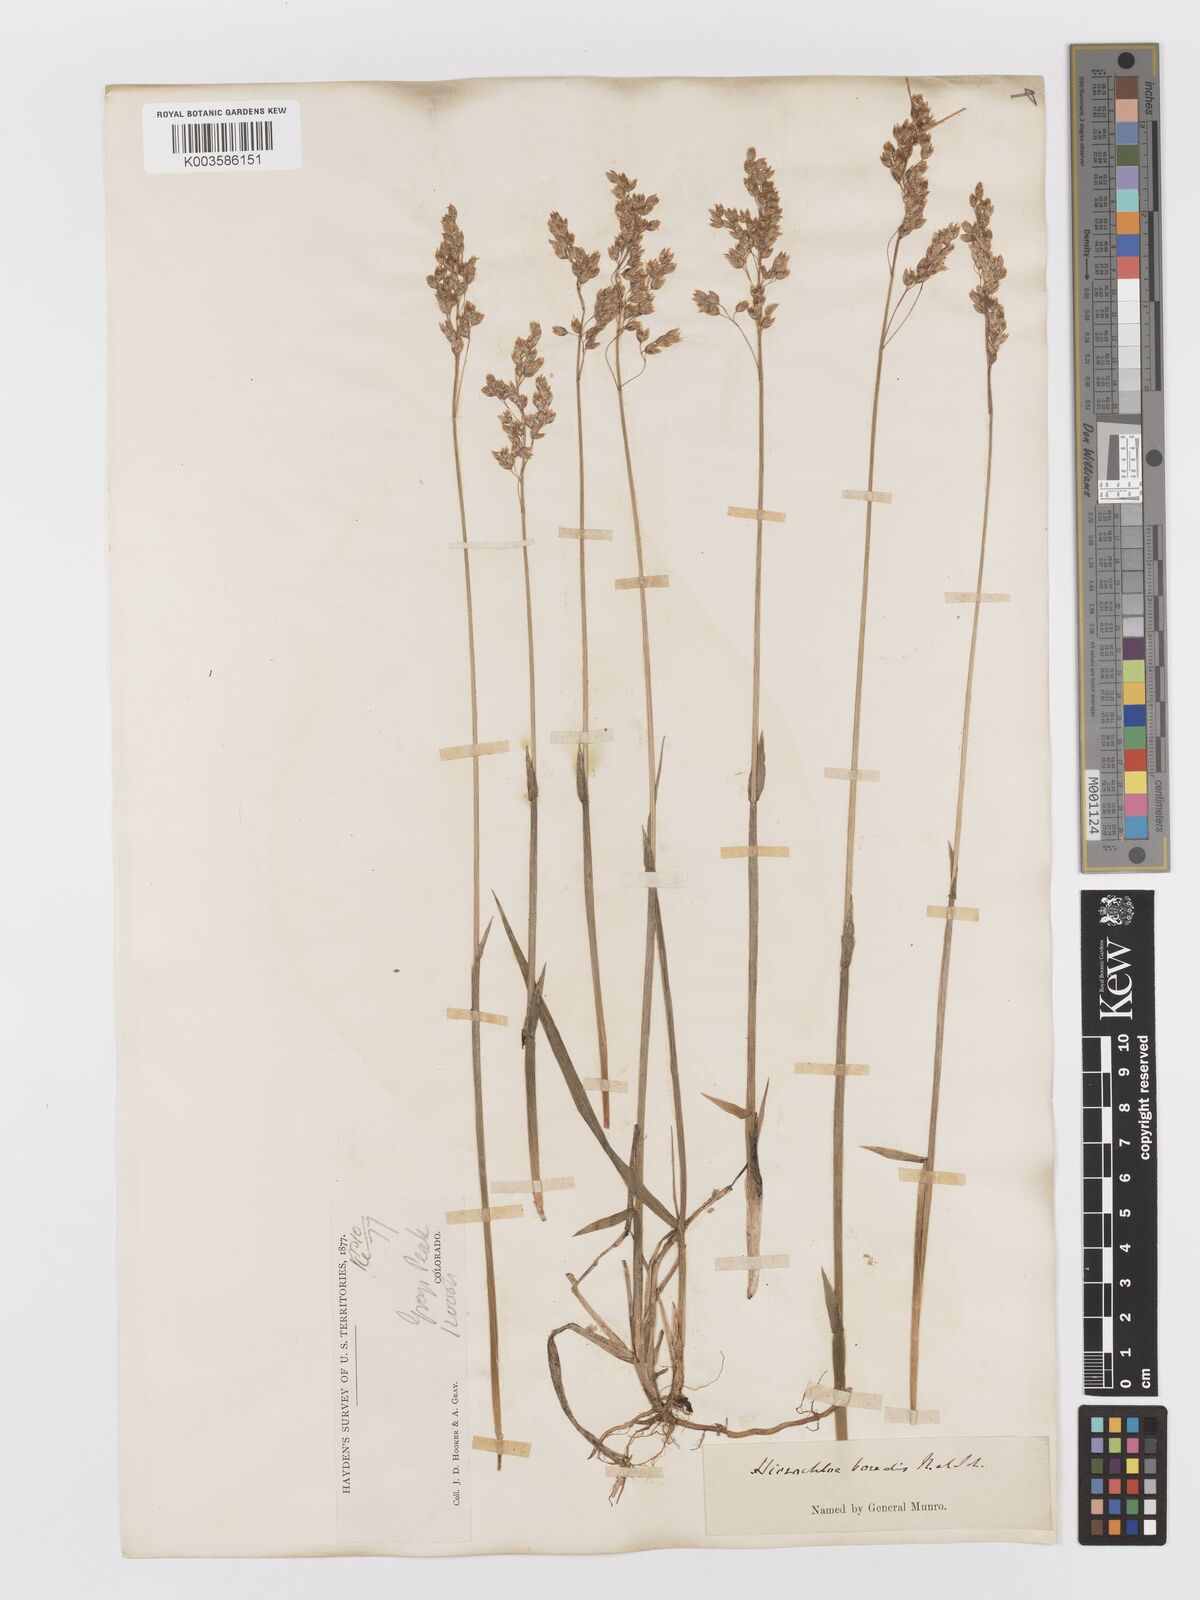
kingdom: Plantae
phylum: Tracheophyta
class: Liliopsida
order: Poales
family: Poaceae
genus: Anthoxanthum
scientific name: Anthoxanthum nitens
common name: Holy grass
